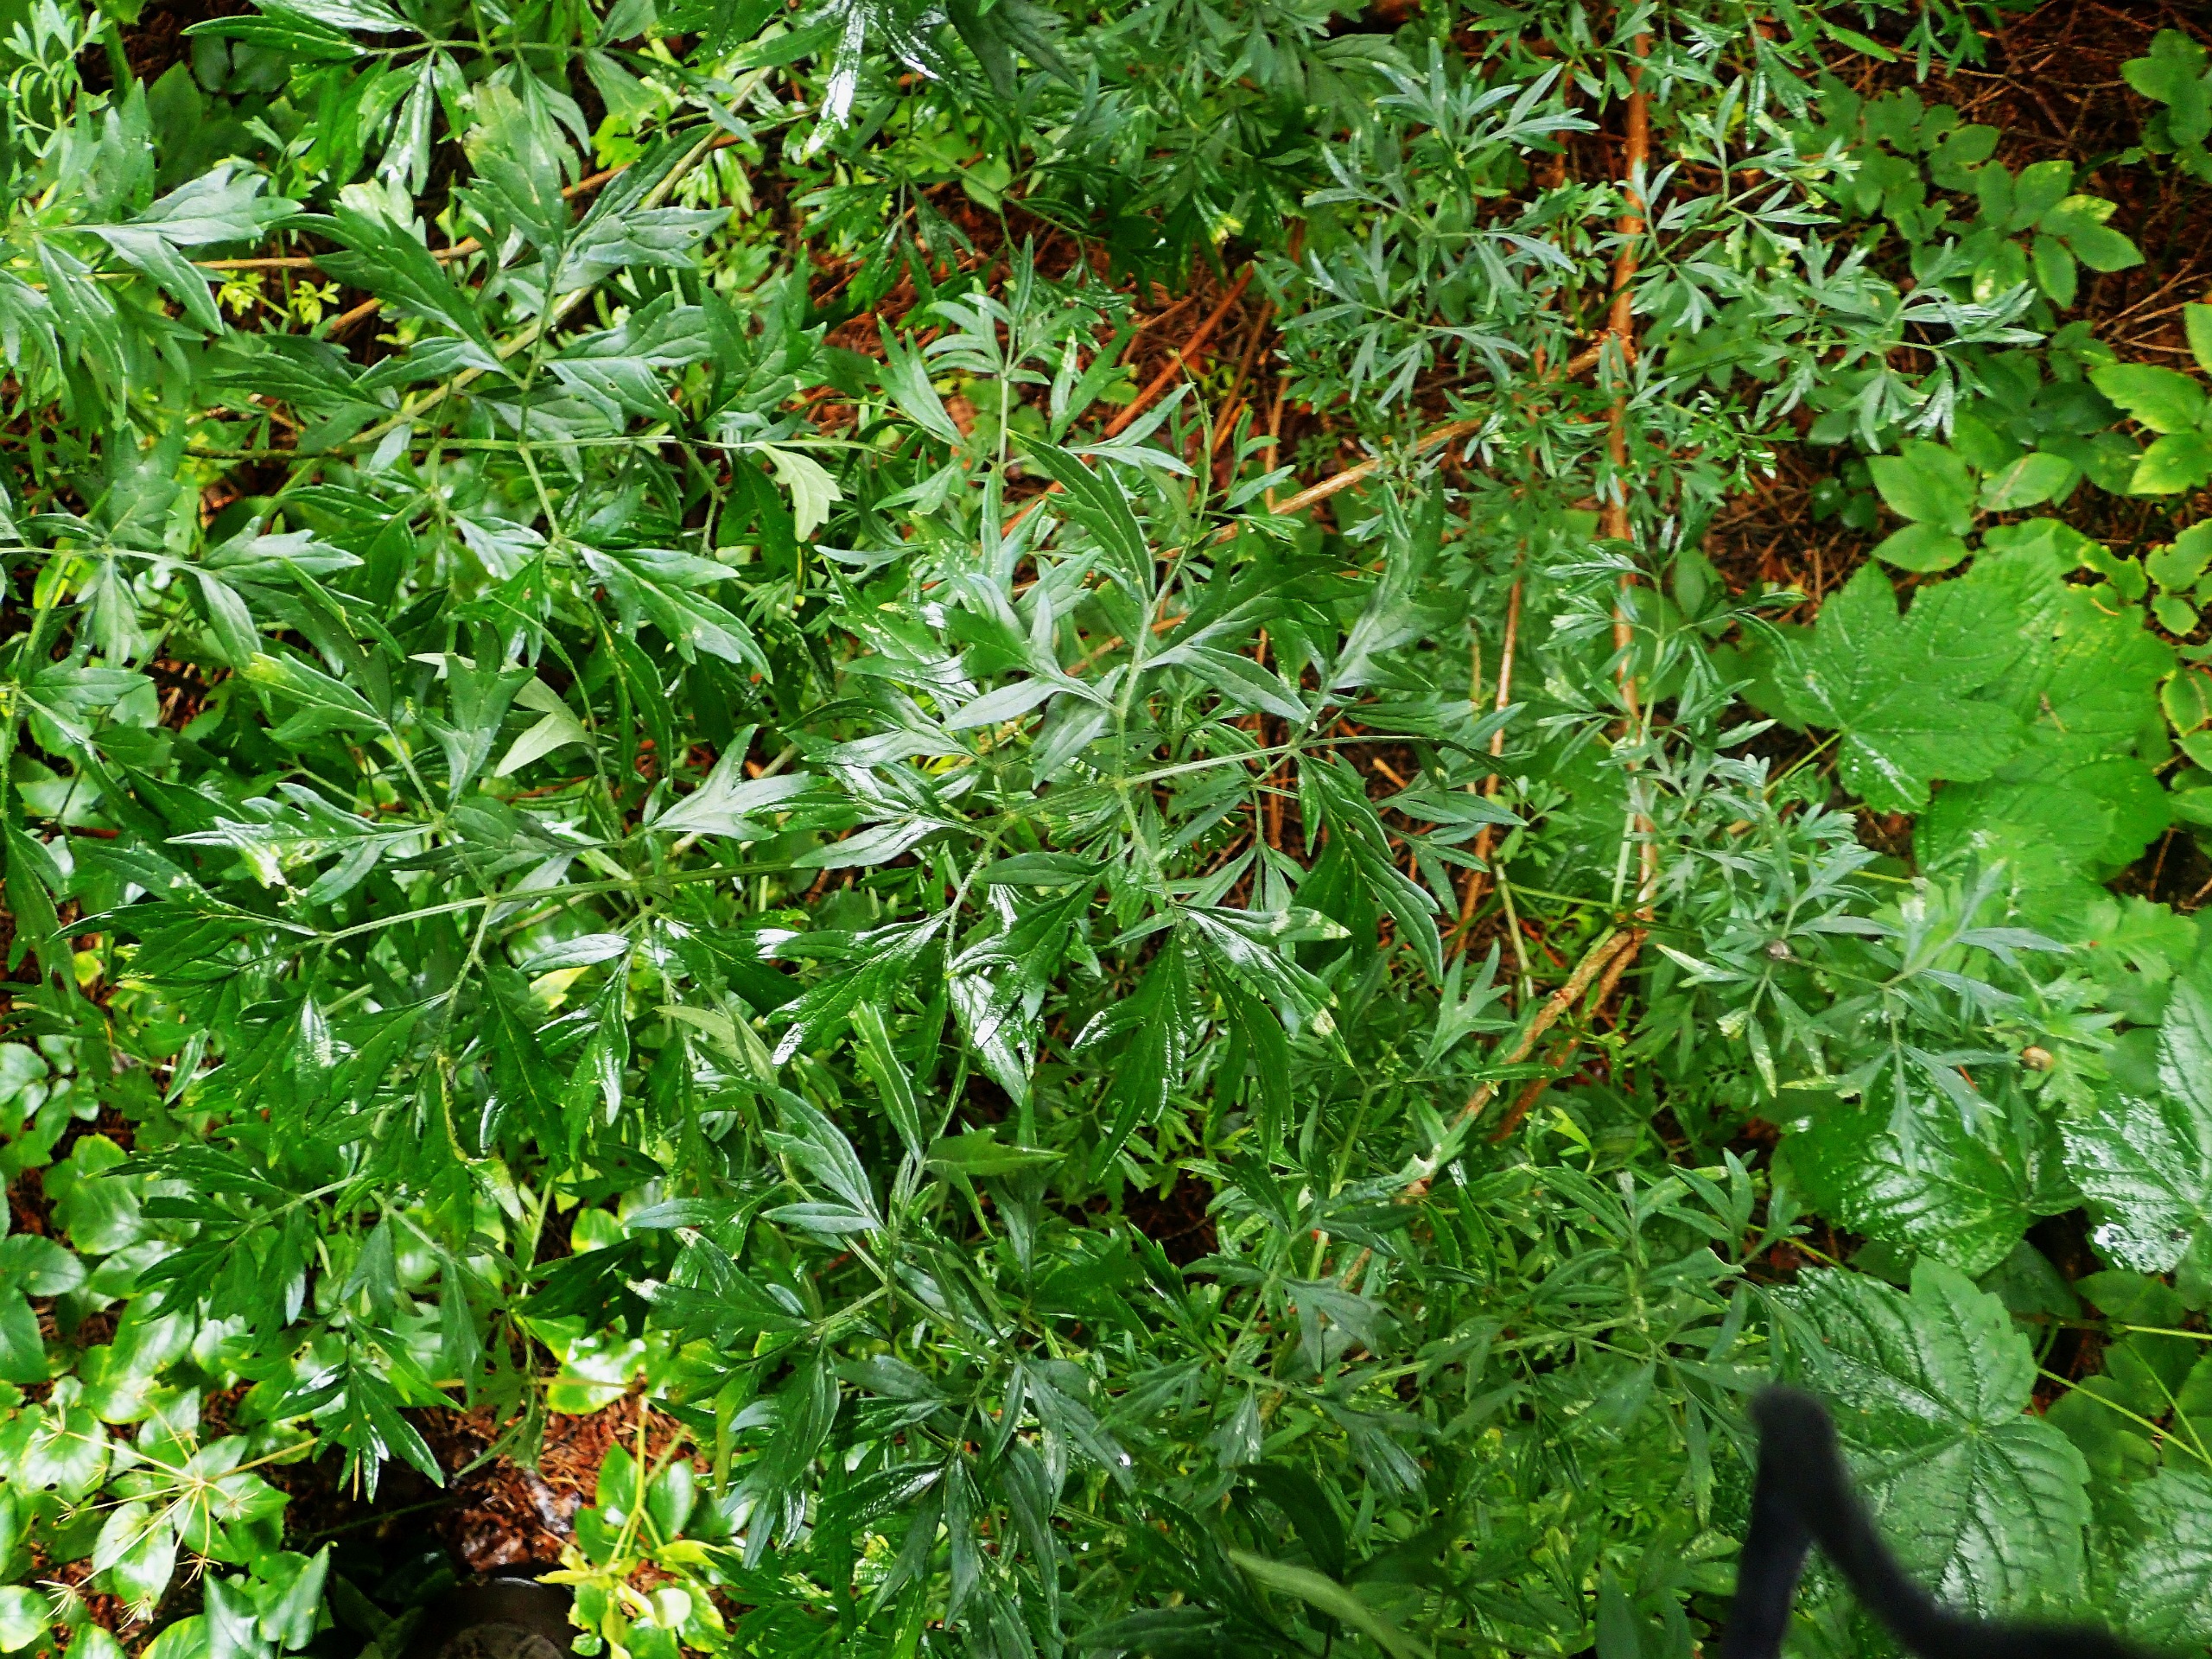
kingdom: Plantae
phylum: Tracheophyta
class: Magnoliopsida
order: Dipsacales
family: Viburnaceae
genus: Sambucus
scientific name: Sambucus nigra
